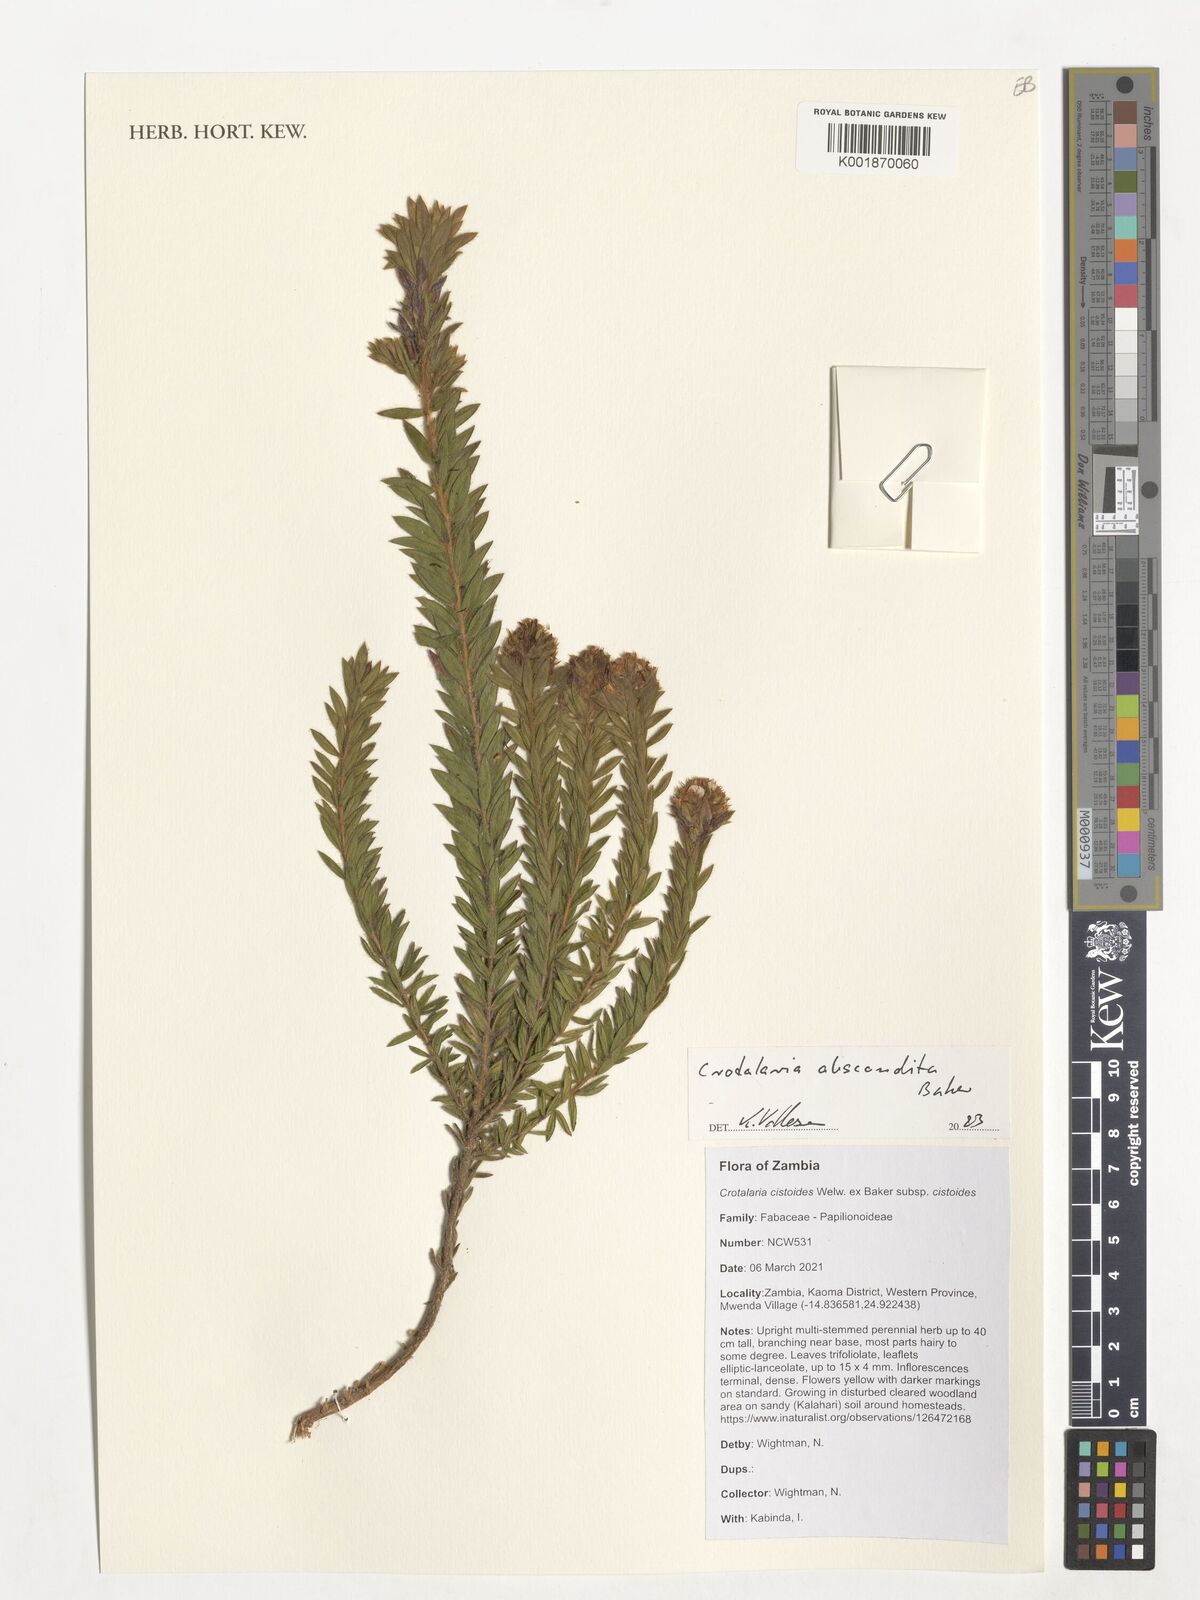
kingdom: Plantae
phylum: Tracheophyta
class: Magnoliopsida
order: Fabales
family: Fabaceae
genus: Crotalaria
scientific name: Crotalaria abscondita
